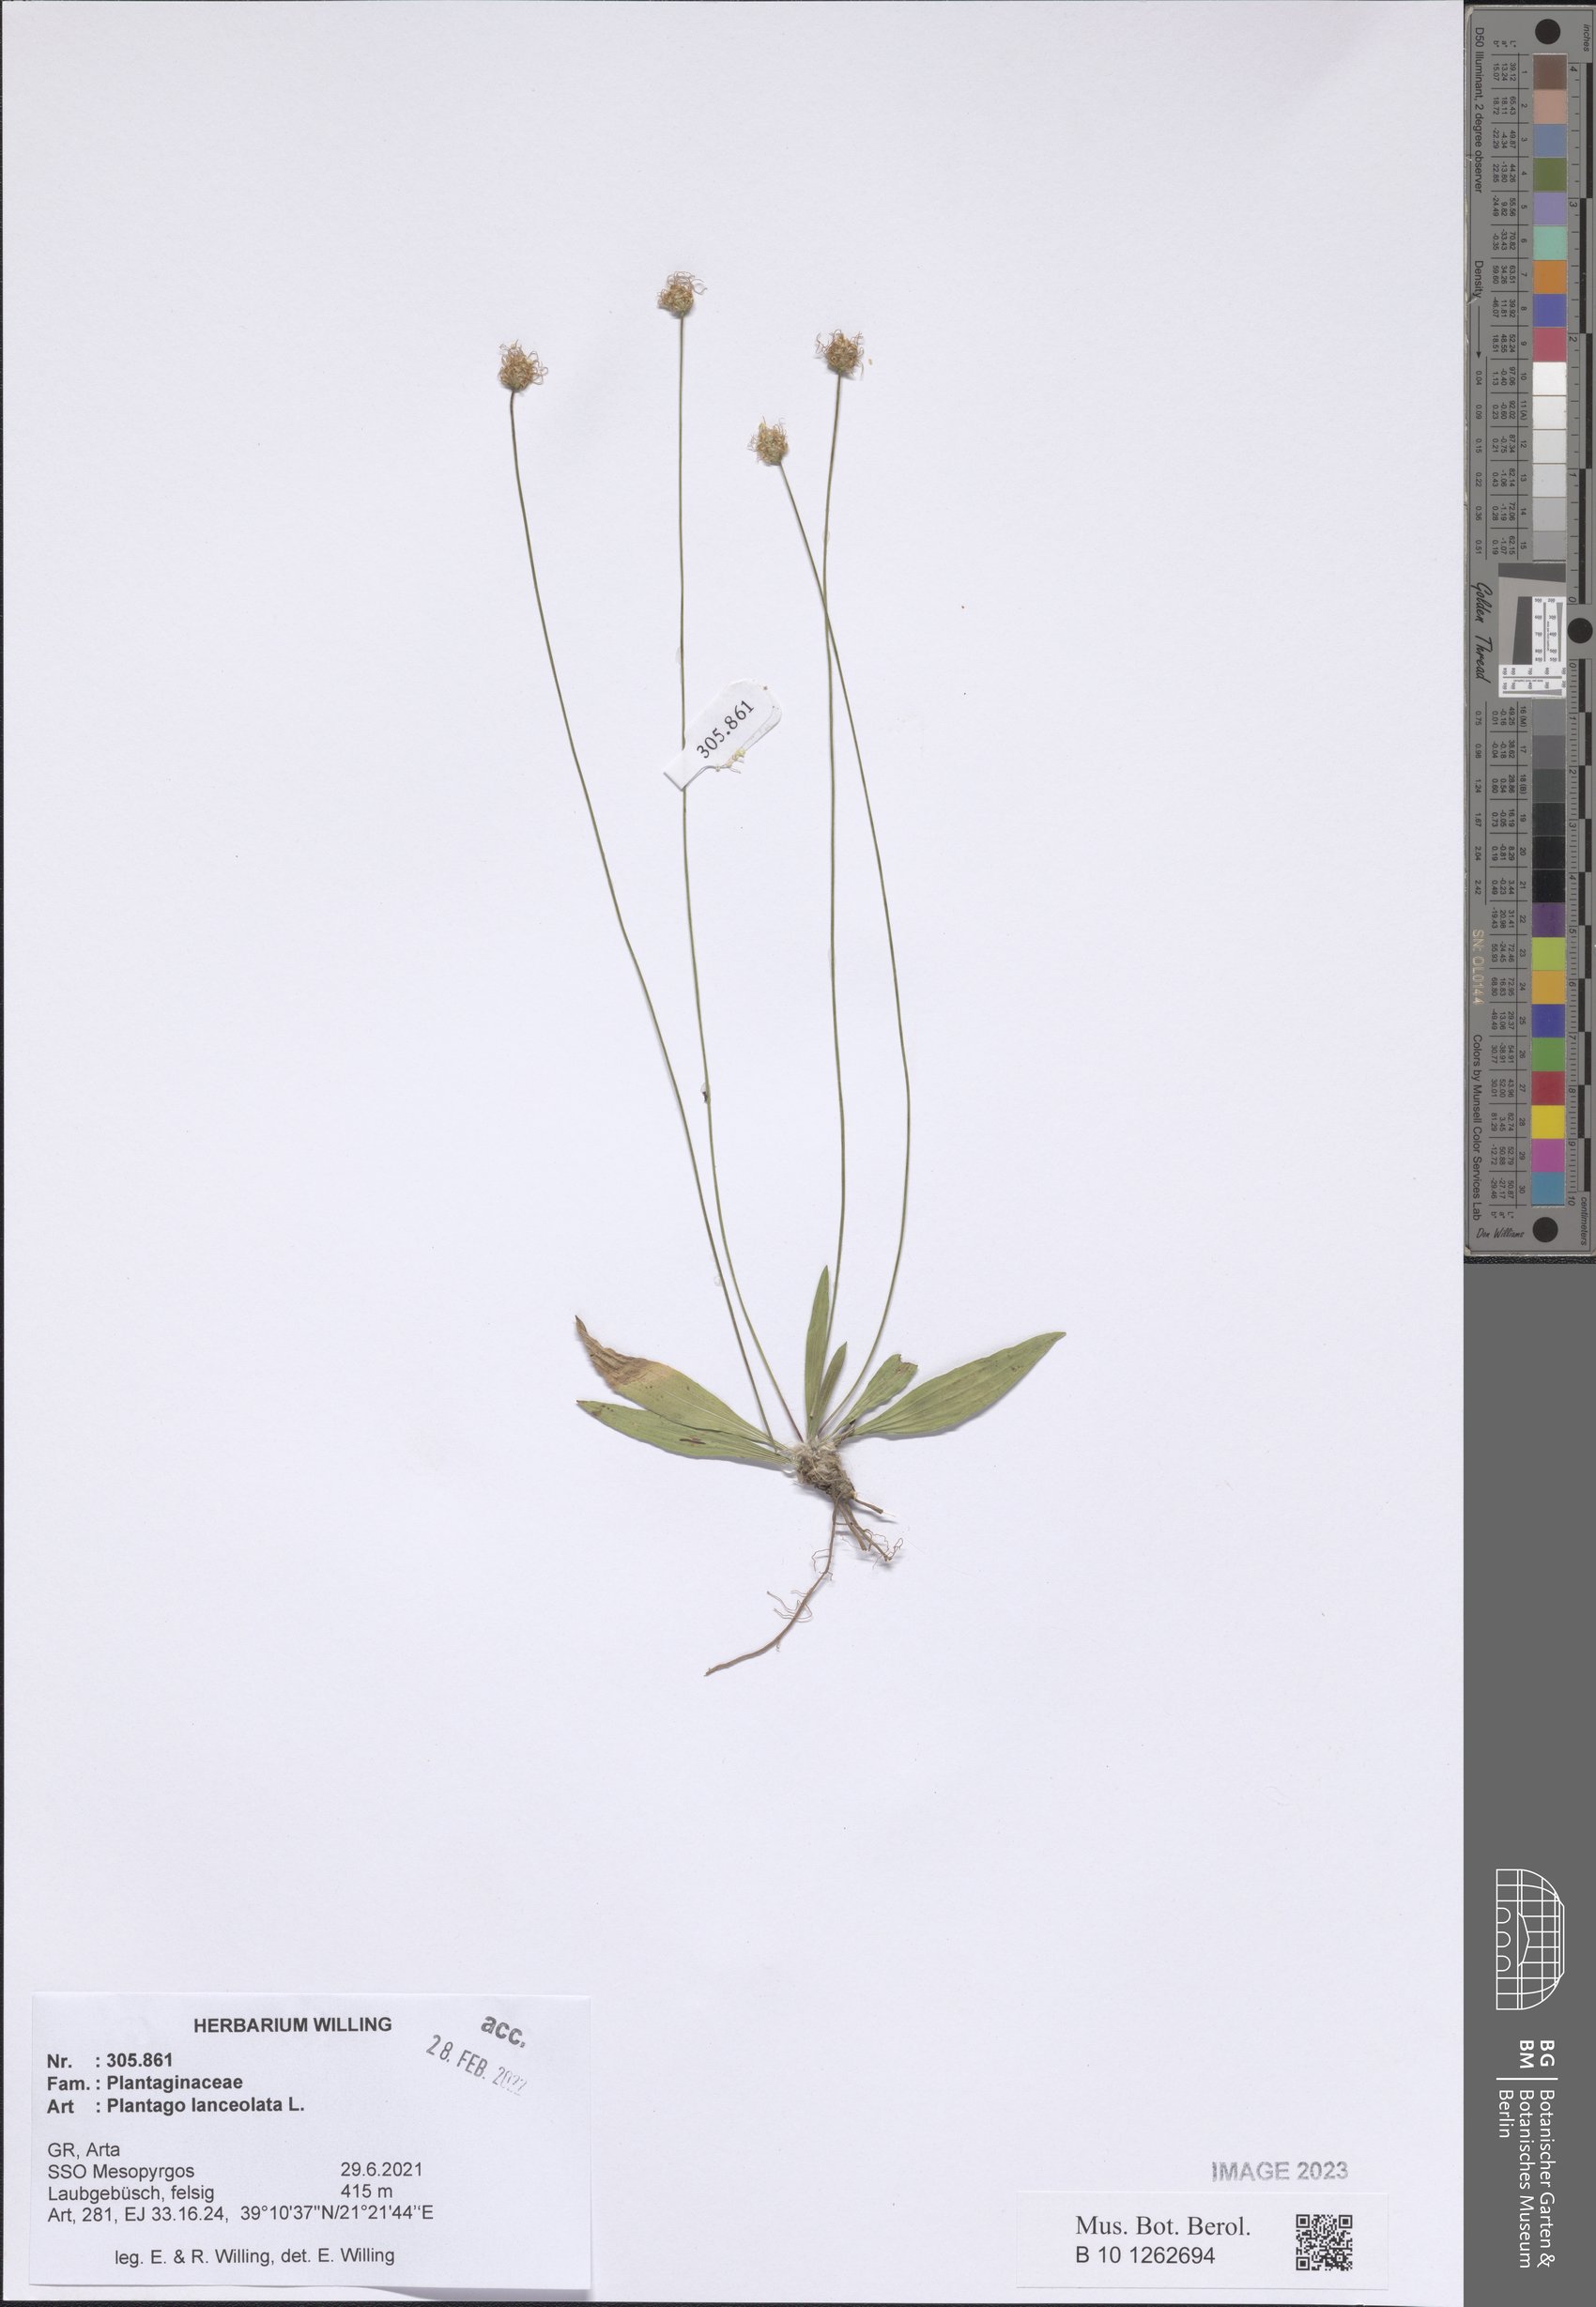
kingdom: Plantae
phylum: Tracheophyta
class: Magnoliopsida
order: Lamiales
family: Plantaginaceae
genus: Plantago
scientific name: Plantago lanceolata
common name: Ribwort plantain
